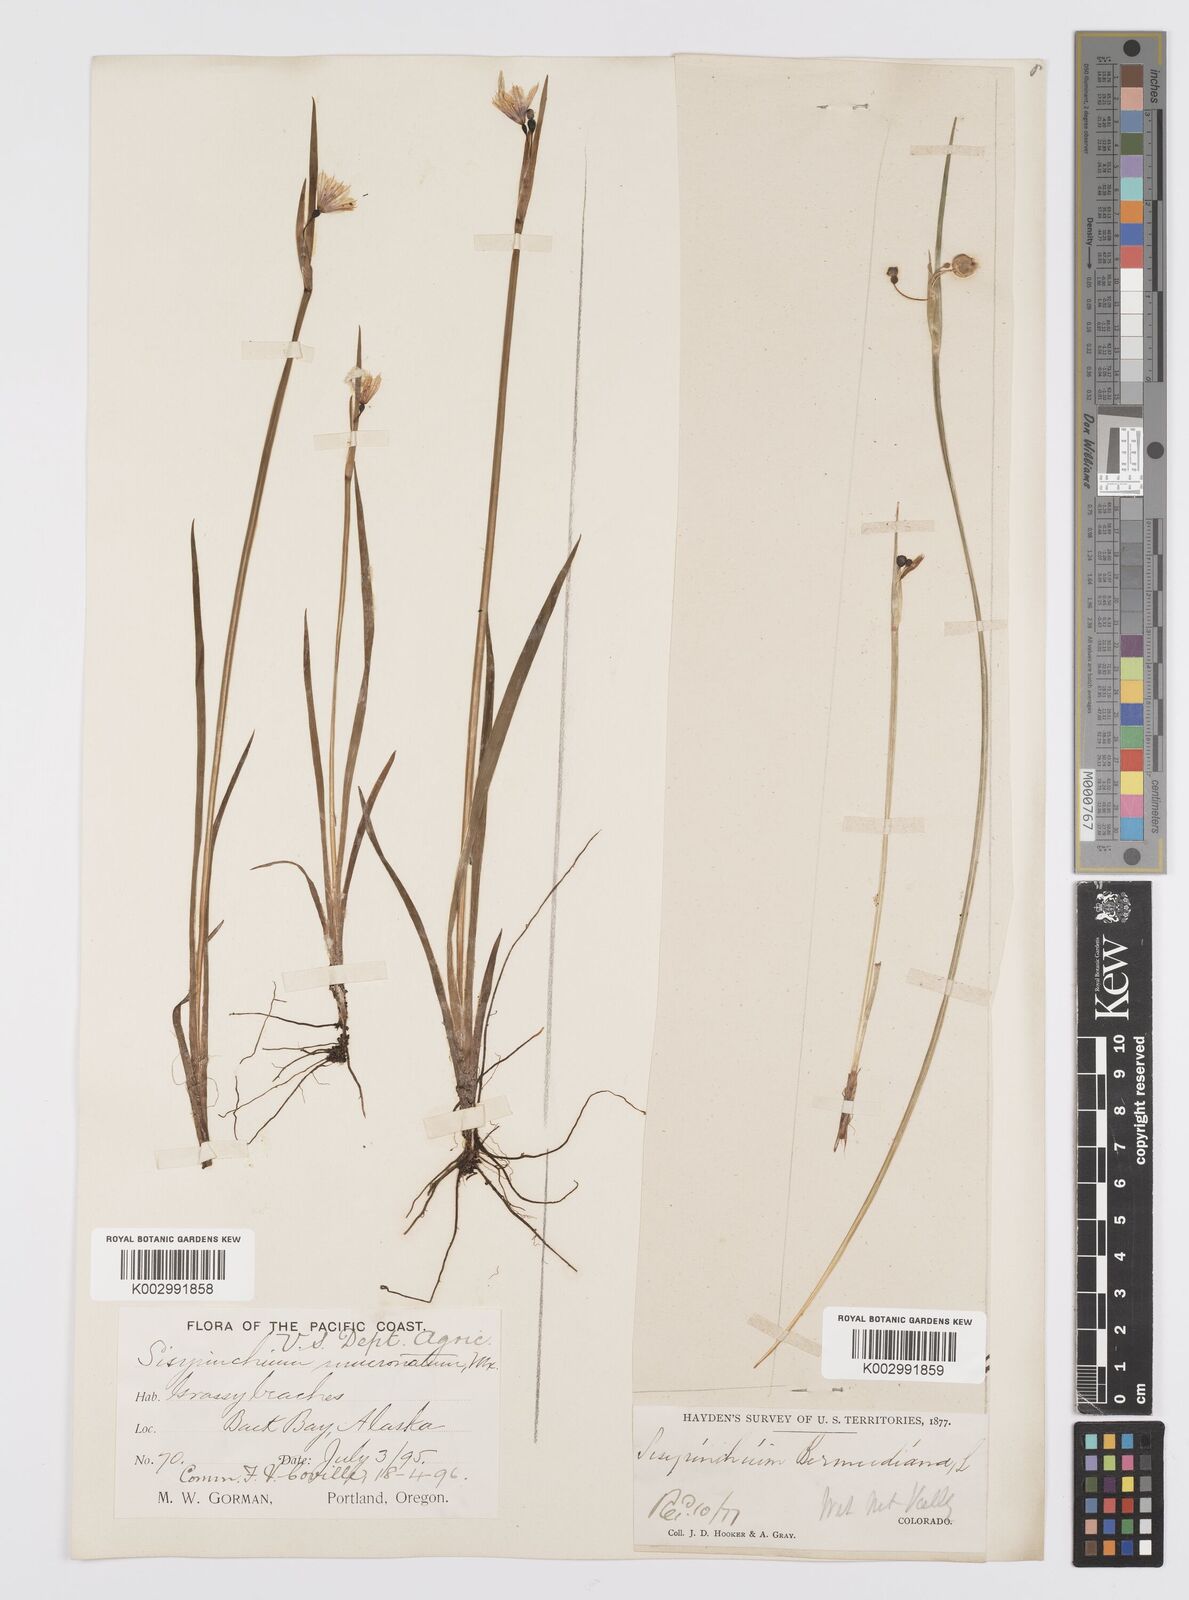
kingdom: Plantae
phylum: Tracheophyta
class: Liliopsida
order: Asparagales
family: Iridaceae
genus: Sisyrinchium
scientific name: Sisyrinchium bermudiana
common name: Blue-eyed-grass
